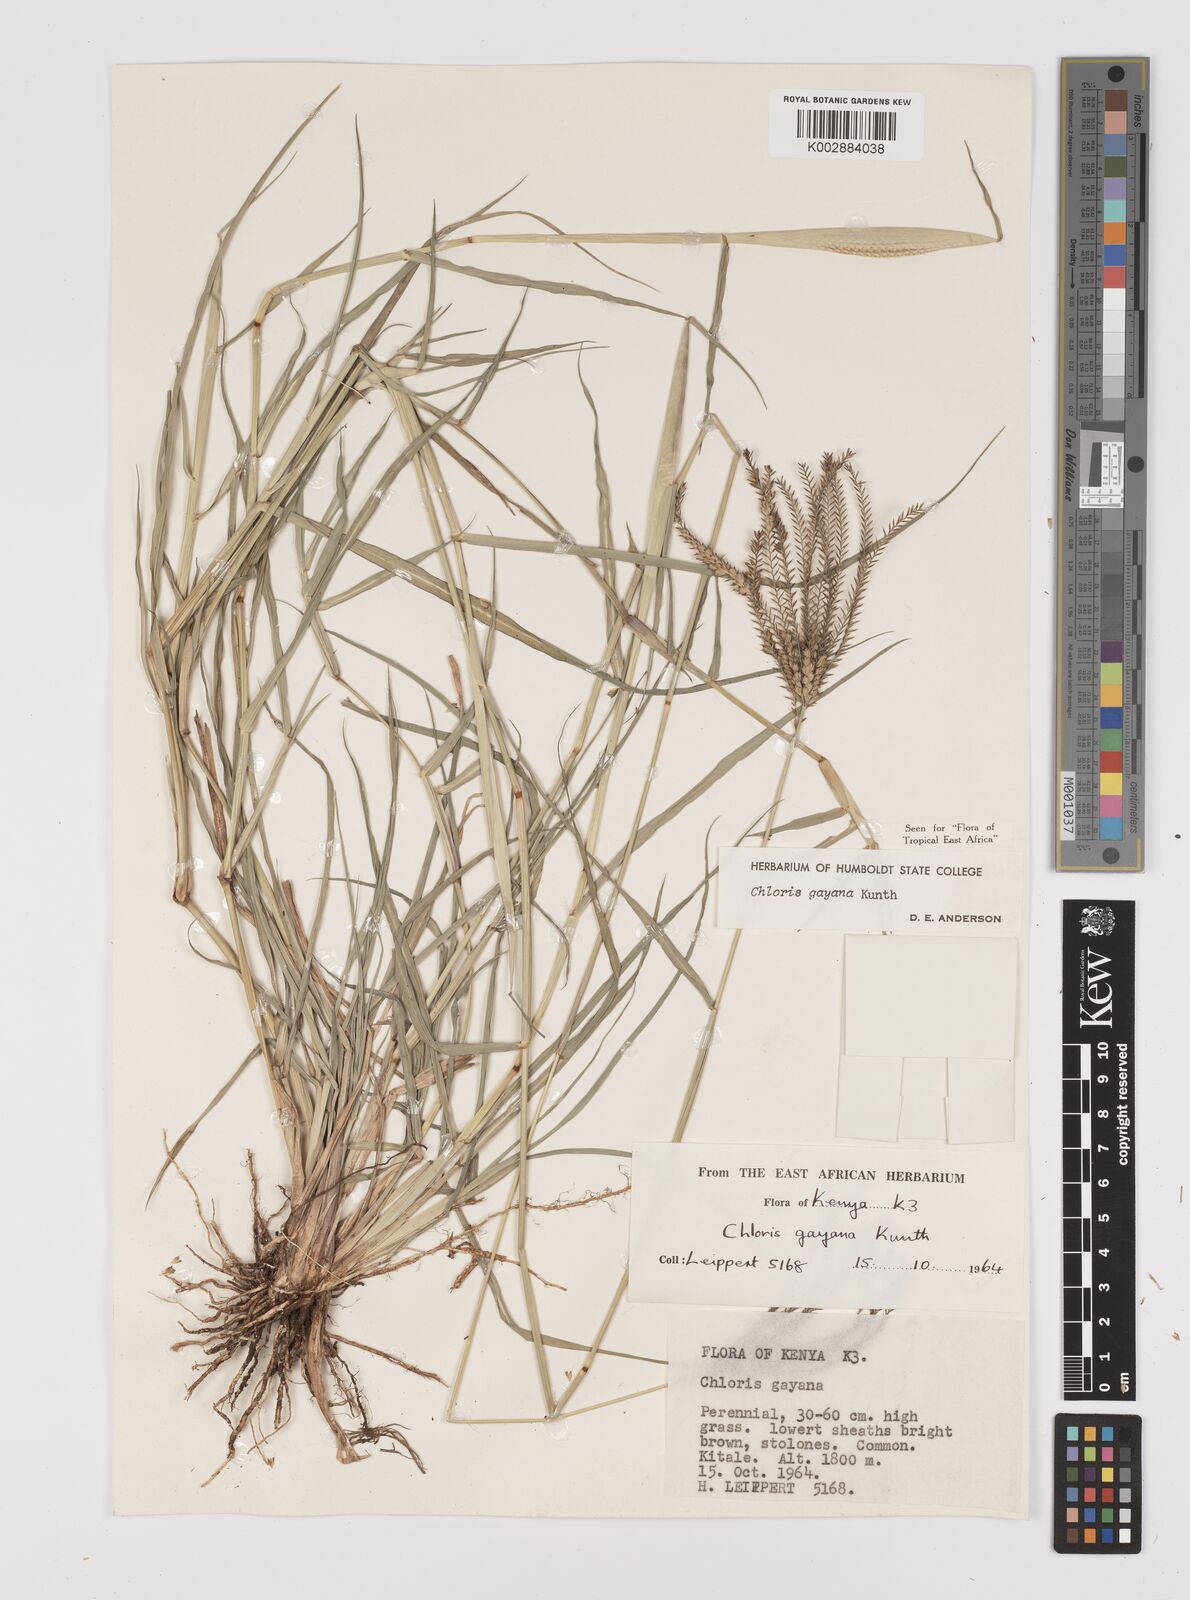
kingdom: Plantae
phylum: Tracheophyta
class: Liliopsida
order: Poales
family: Poaceae
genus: Chloris
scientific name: Chloris gayana
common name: Rhodes grass
